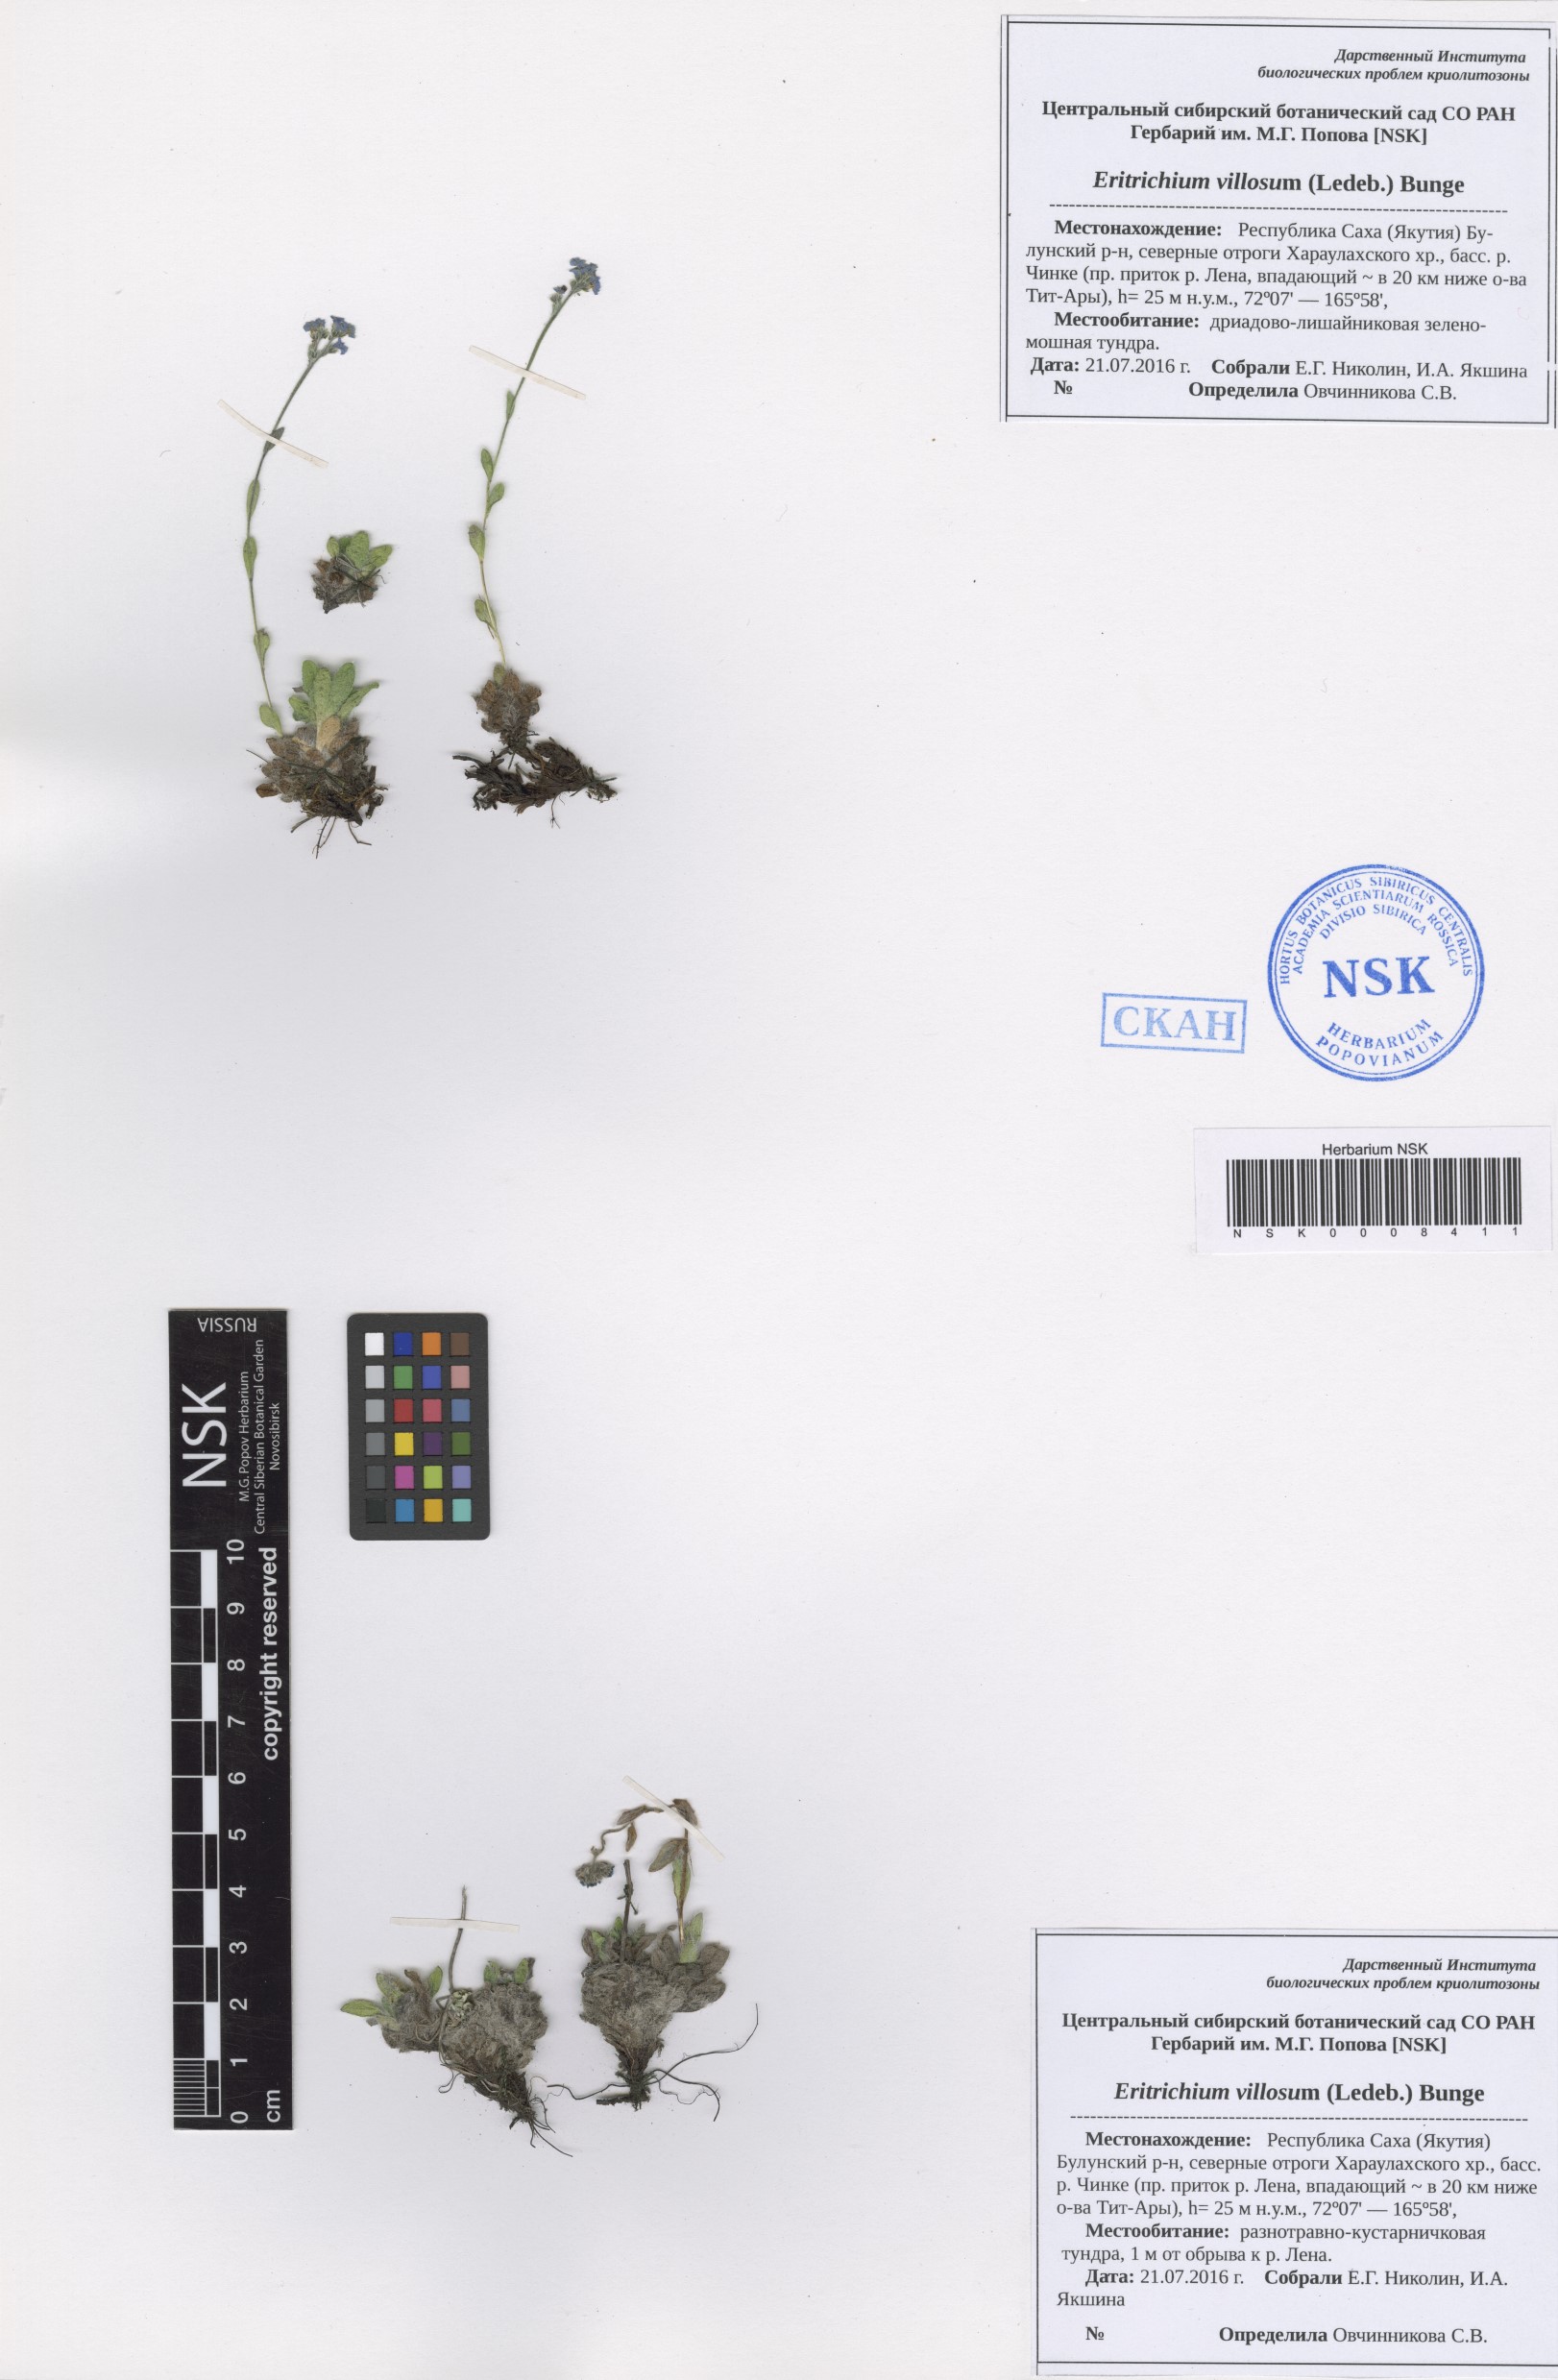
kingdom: Plantae
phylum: Tracheophyta
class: Magnoliopsida
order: Boraginales
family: Boraginaceae
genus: Eritrichium
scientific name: Eritrichium villosum
